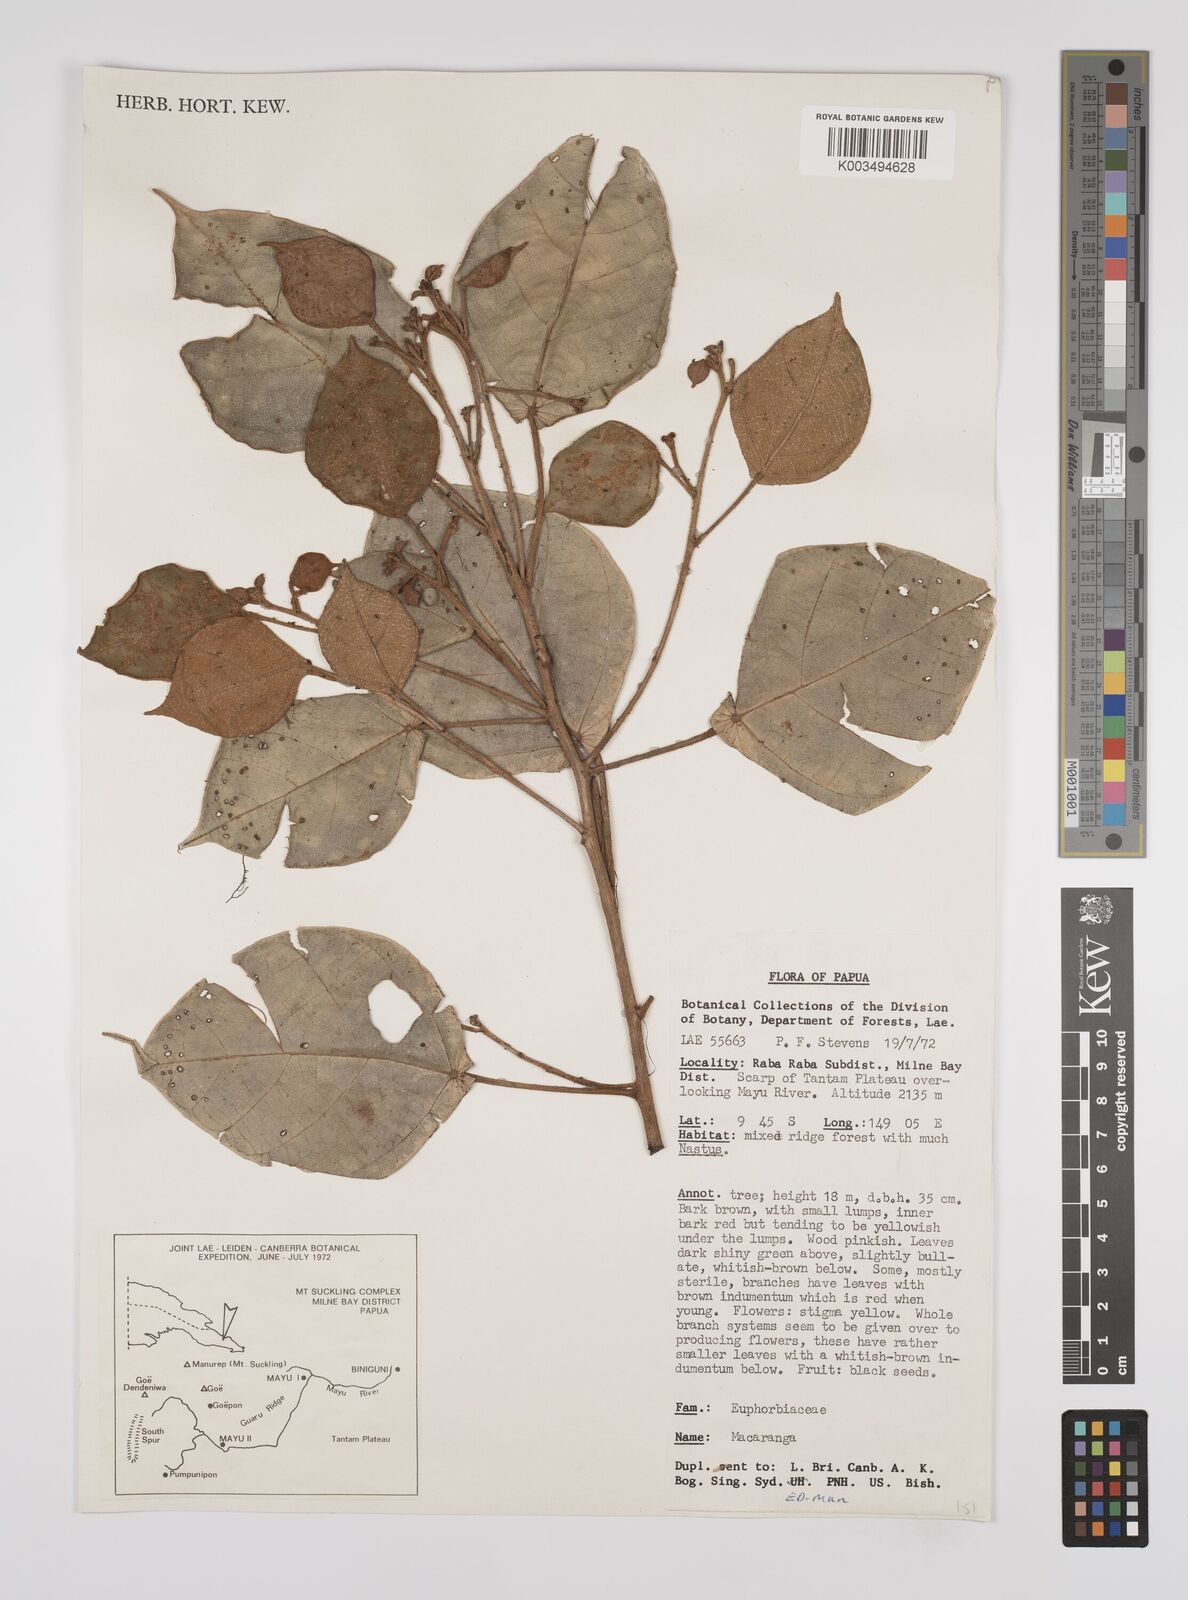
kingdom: Plantae
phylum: Tracheophyta
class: Magnoliopsida
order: Malpighiales
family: Euphorbiaceae
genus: Macaranga
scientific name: Macaranga trichanthera
